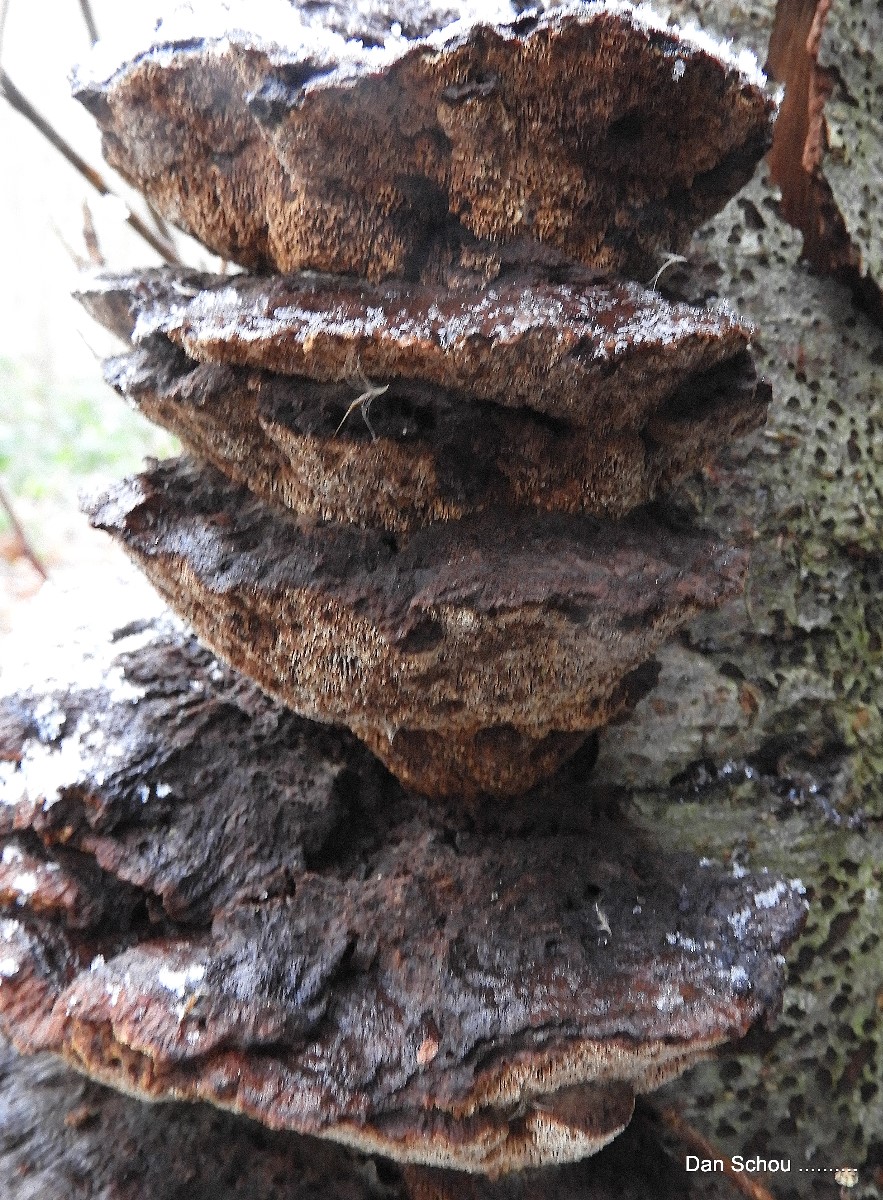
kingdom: Fungi
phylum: Basidiomycota
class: Agaricomycetes
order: Hymenochaetales
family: Hymenochaetaceae
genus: Xanthoporia
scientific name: Xanthoporia radiata
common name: elle-spejlporesvamp
